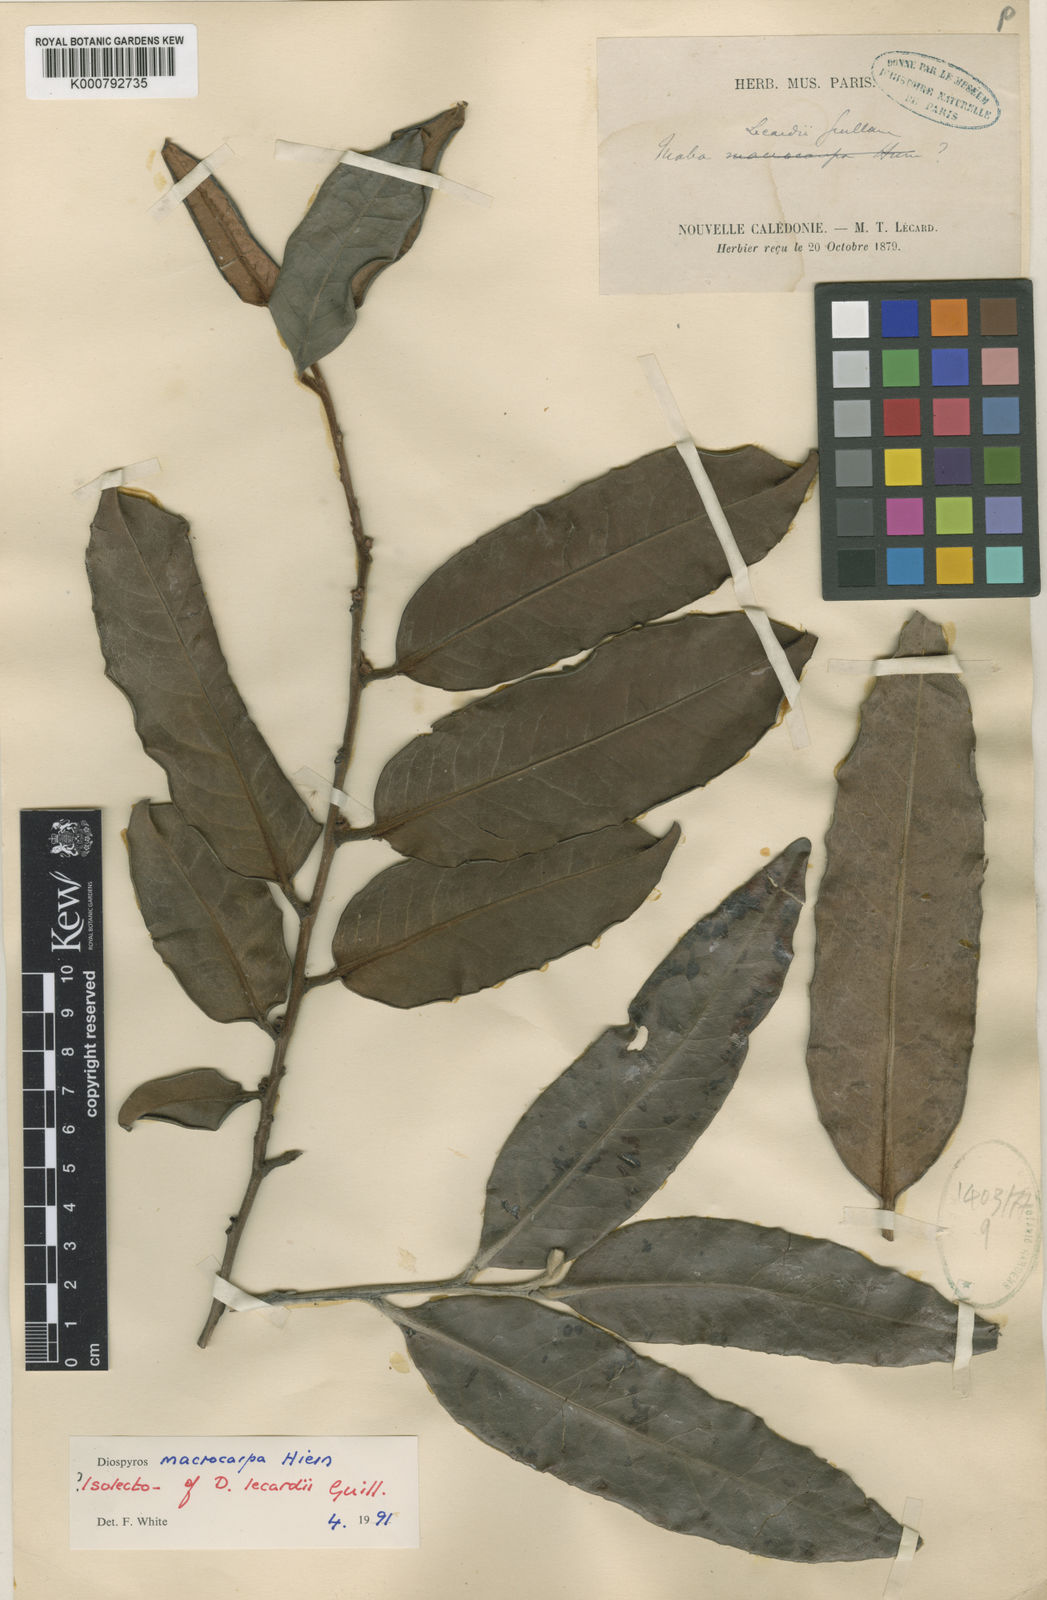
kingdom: Plantae
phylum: Tracheophyta
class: Magnoliopsida
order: Ericales
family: Ebenaceae
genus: Diospyros
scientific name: Diospyros macrocarpa
